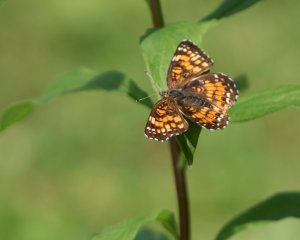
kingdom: Animalia
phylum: Arthropoda
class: Insecta
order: Lepidoptera
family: Nymphalidae
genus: Chlosyne
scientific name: Chlosyne harrisii
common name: Harris's Checkerspot
